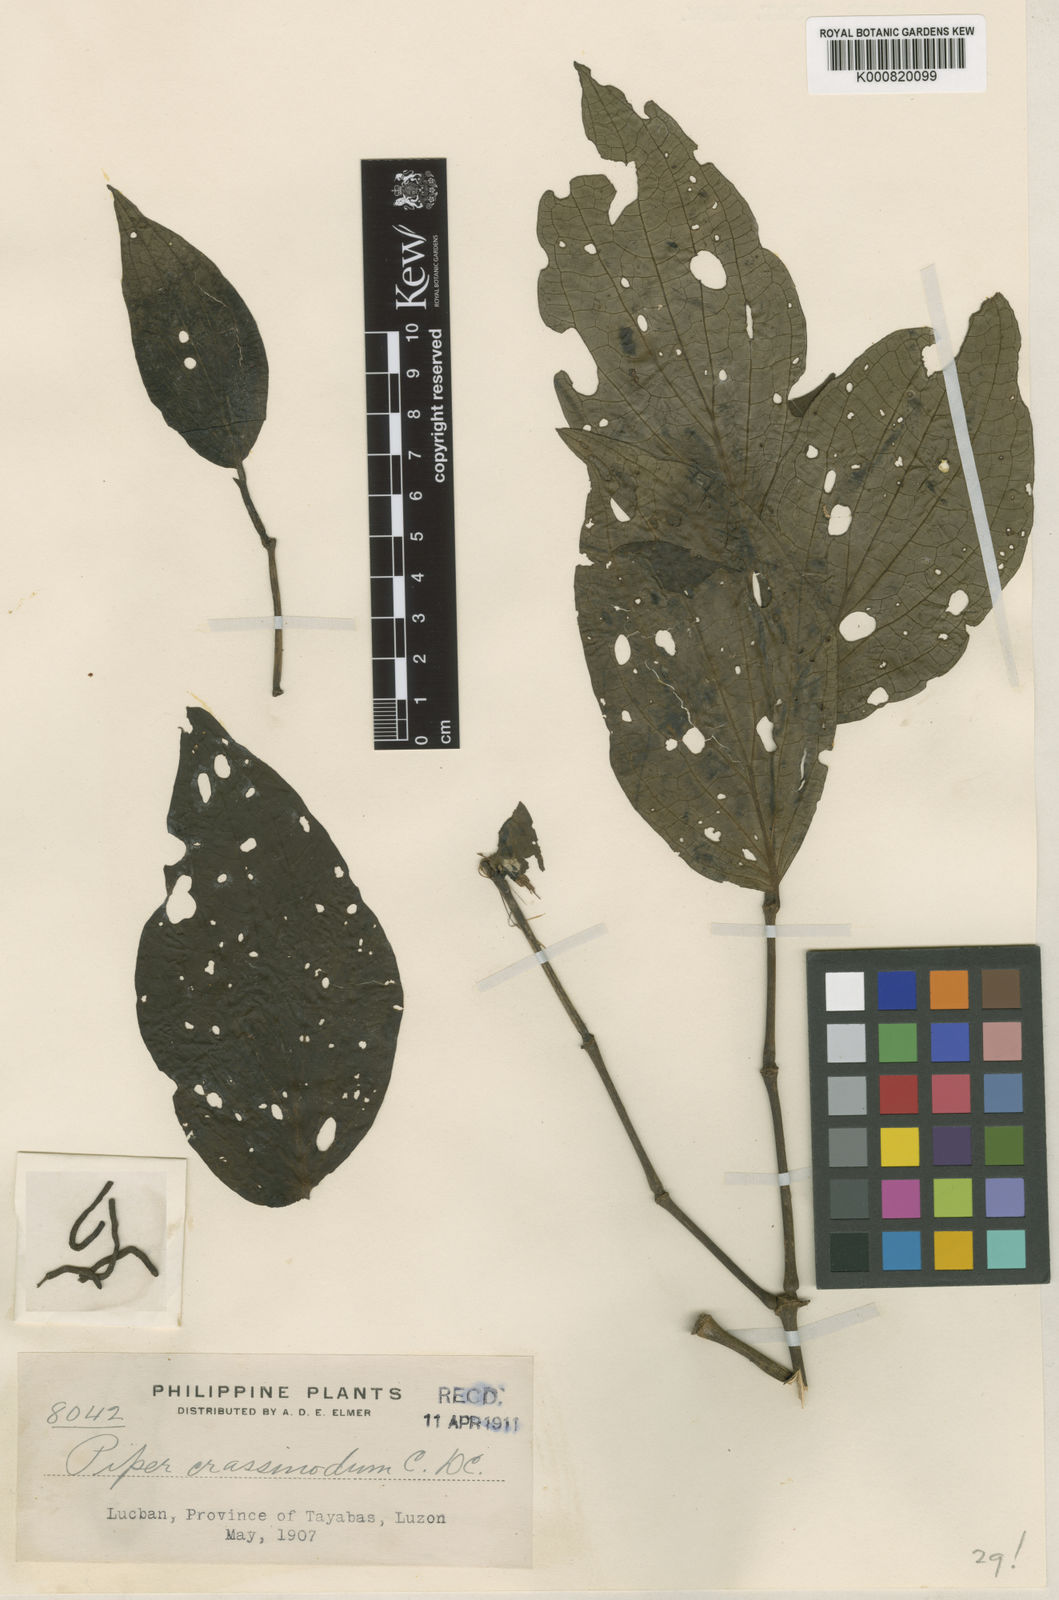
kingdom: Plantae
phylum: Tracheophyta
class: Magnoliopsida
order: Piperales
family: Piperaceae
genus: Piper
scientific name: Piper longivaginans
